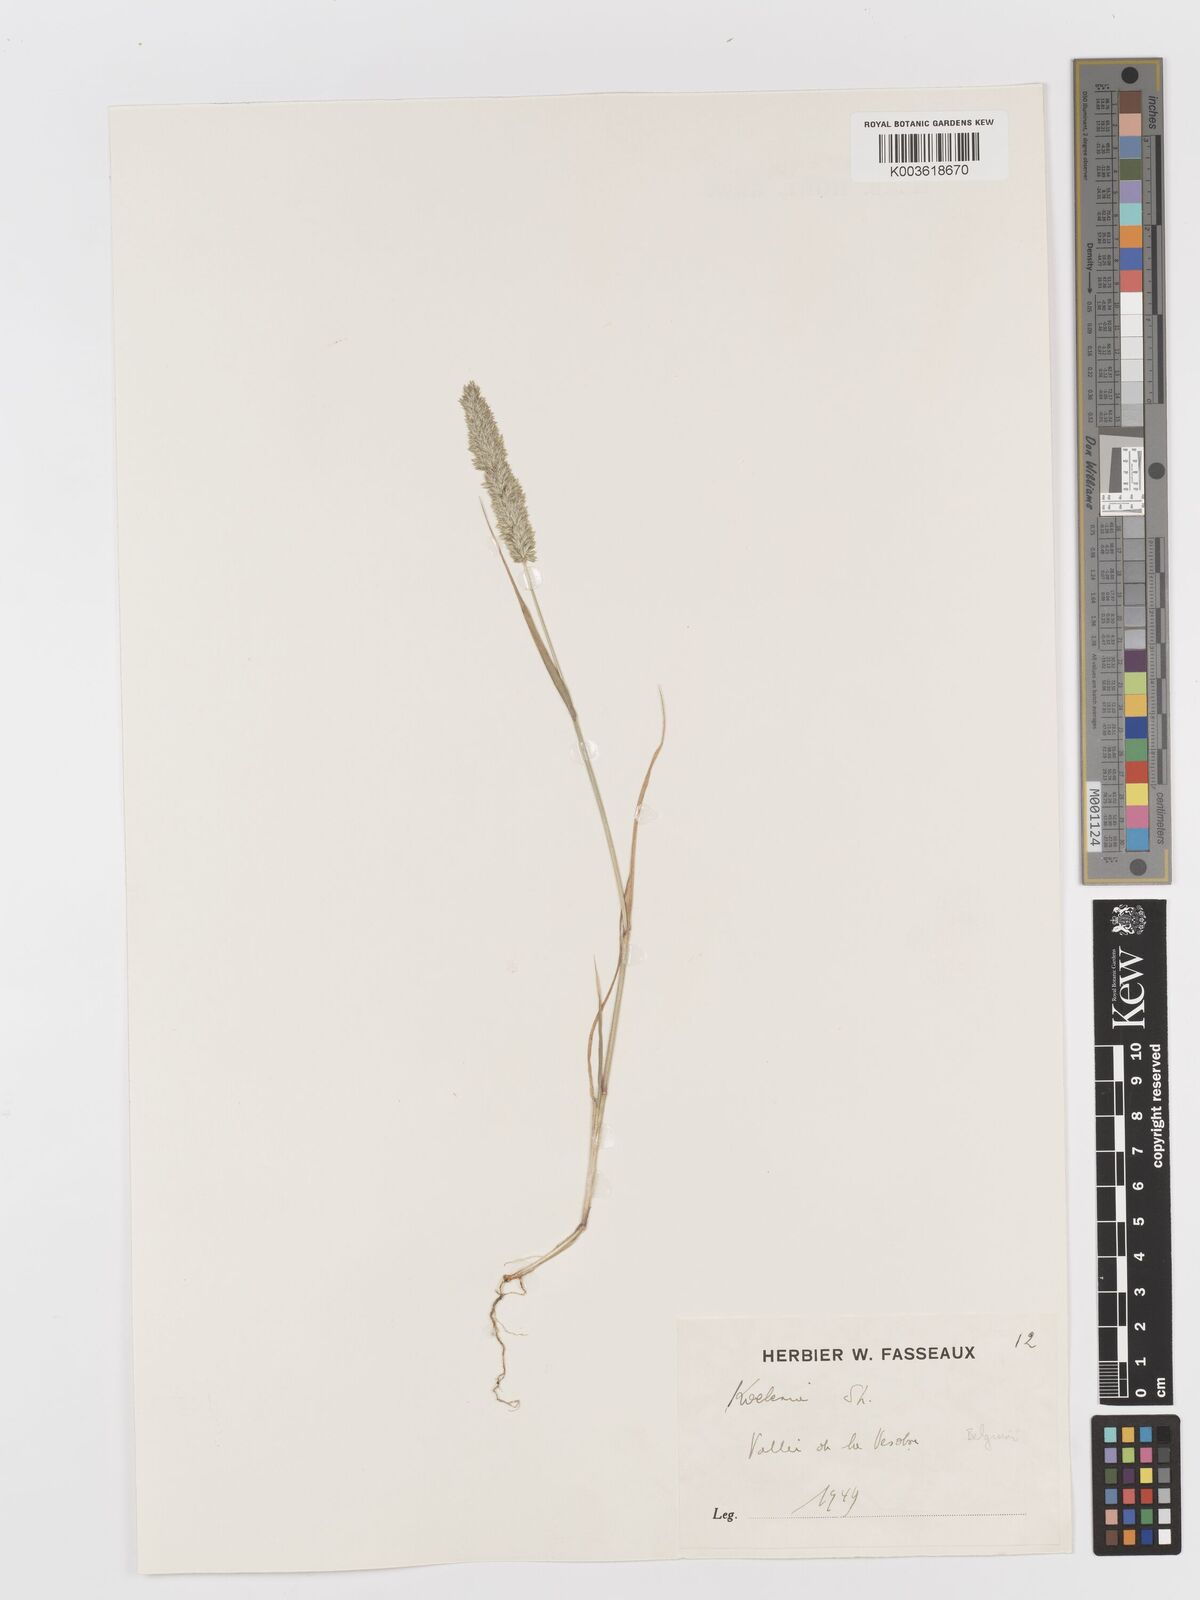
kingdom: Plantae
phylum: Tracheophyta
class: Liliopsida
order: Poales
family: Poaceae
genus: Rostraria
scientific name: Rostraria
